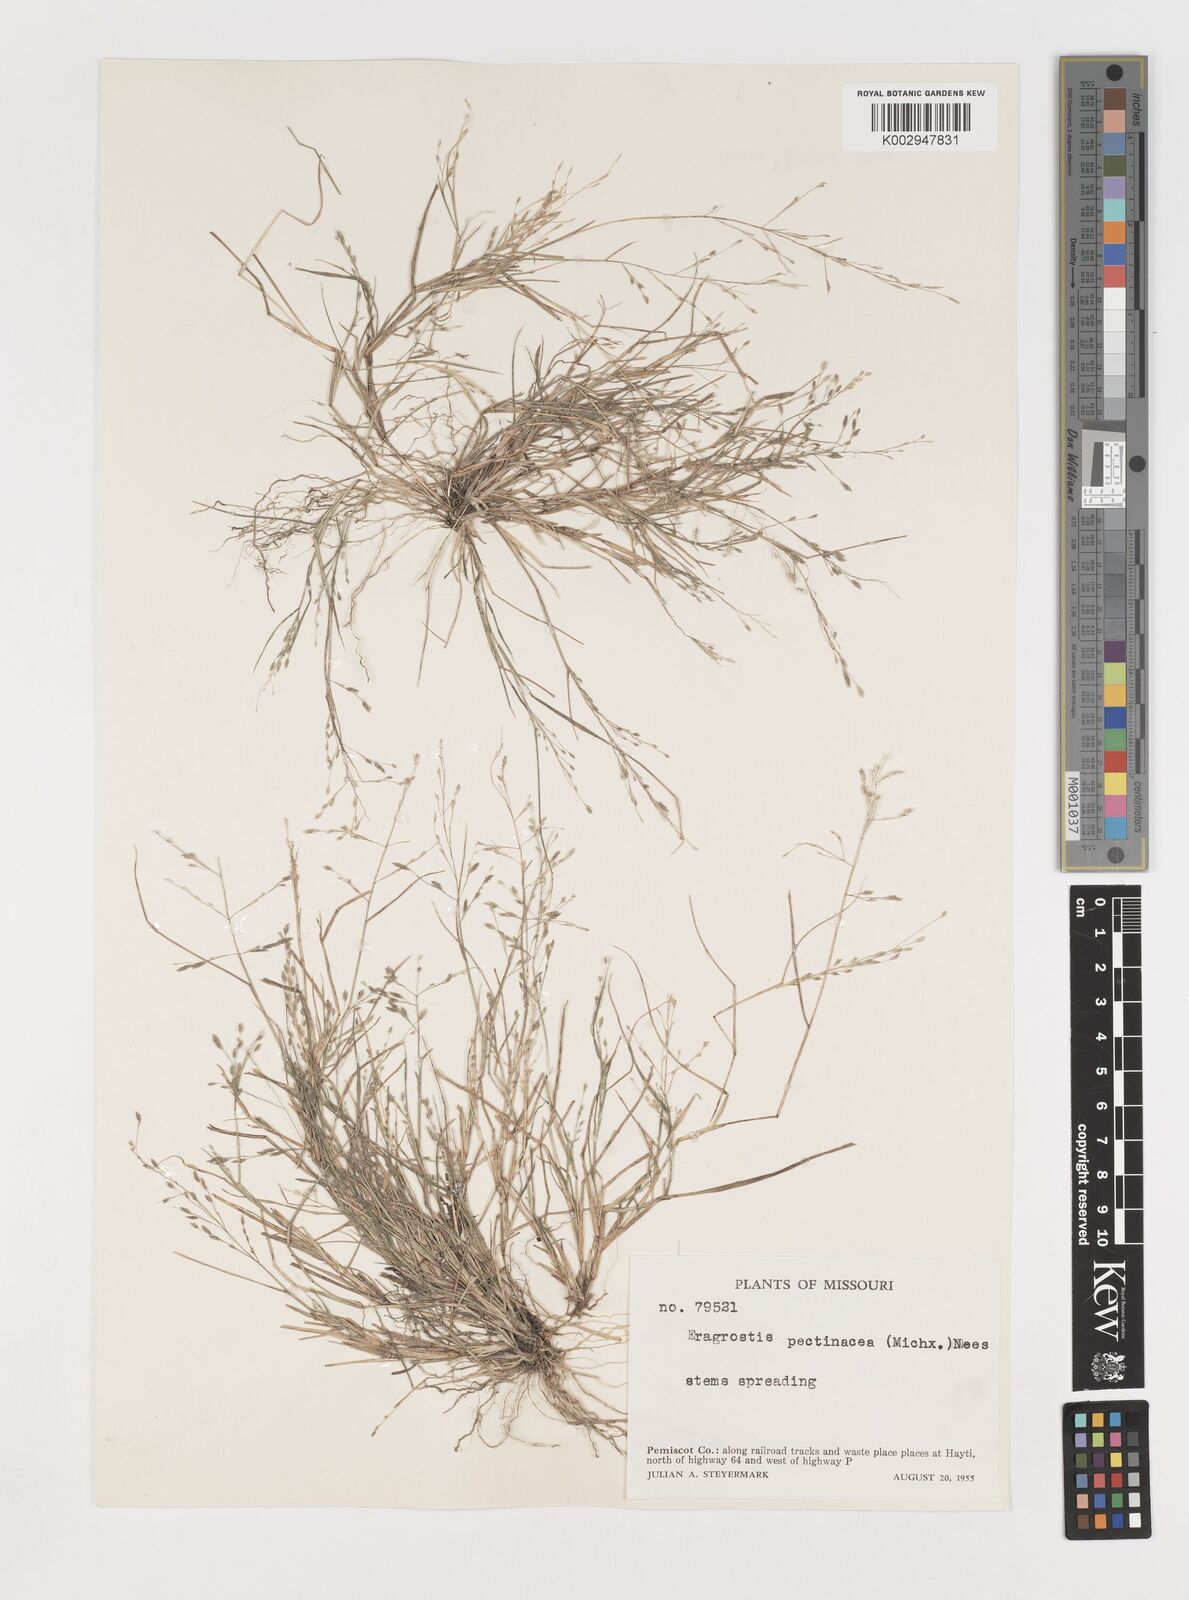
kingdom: Plantae
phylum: Tracheophyta
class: Liliopsida
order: Poales
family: Poaceae
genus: Eragrostis
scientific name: Eragrostis pectinacea
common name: Tufted lovegrass
